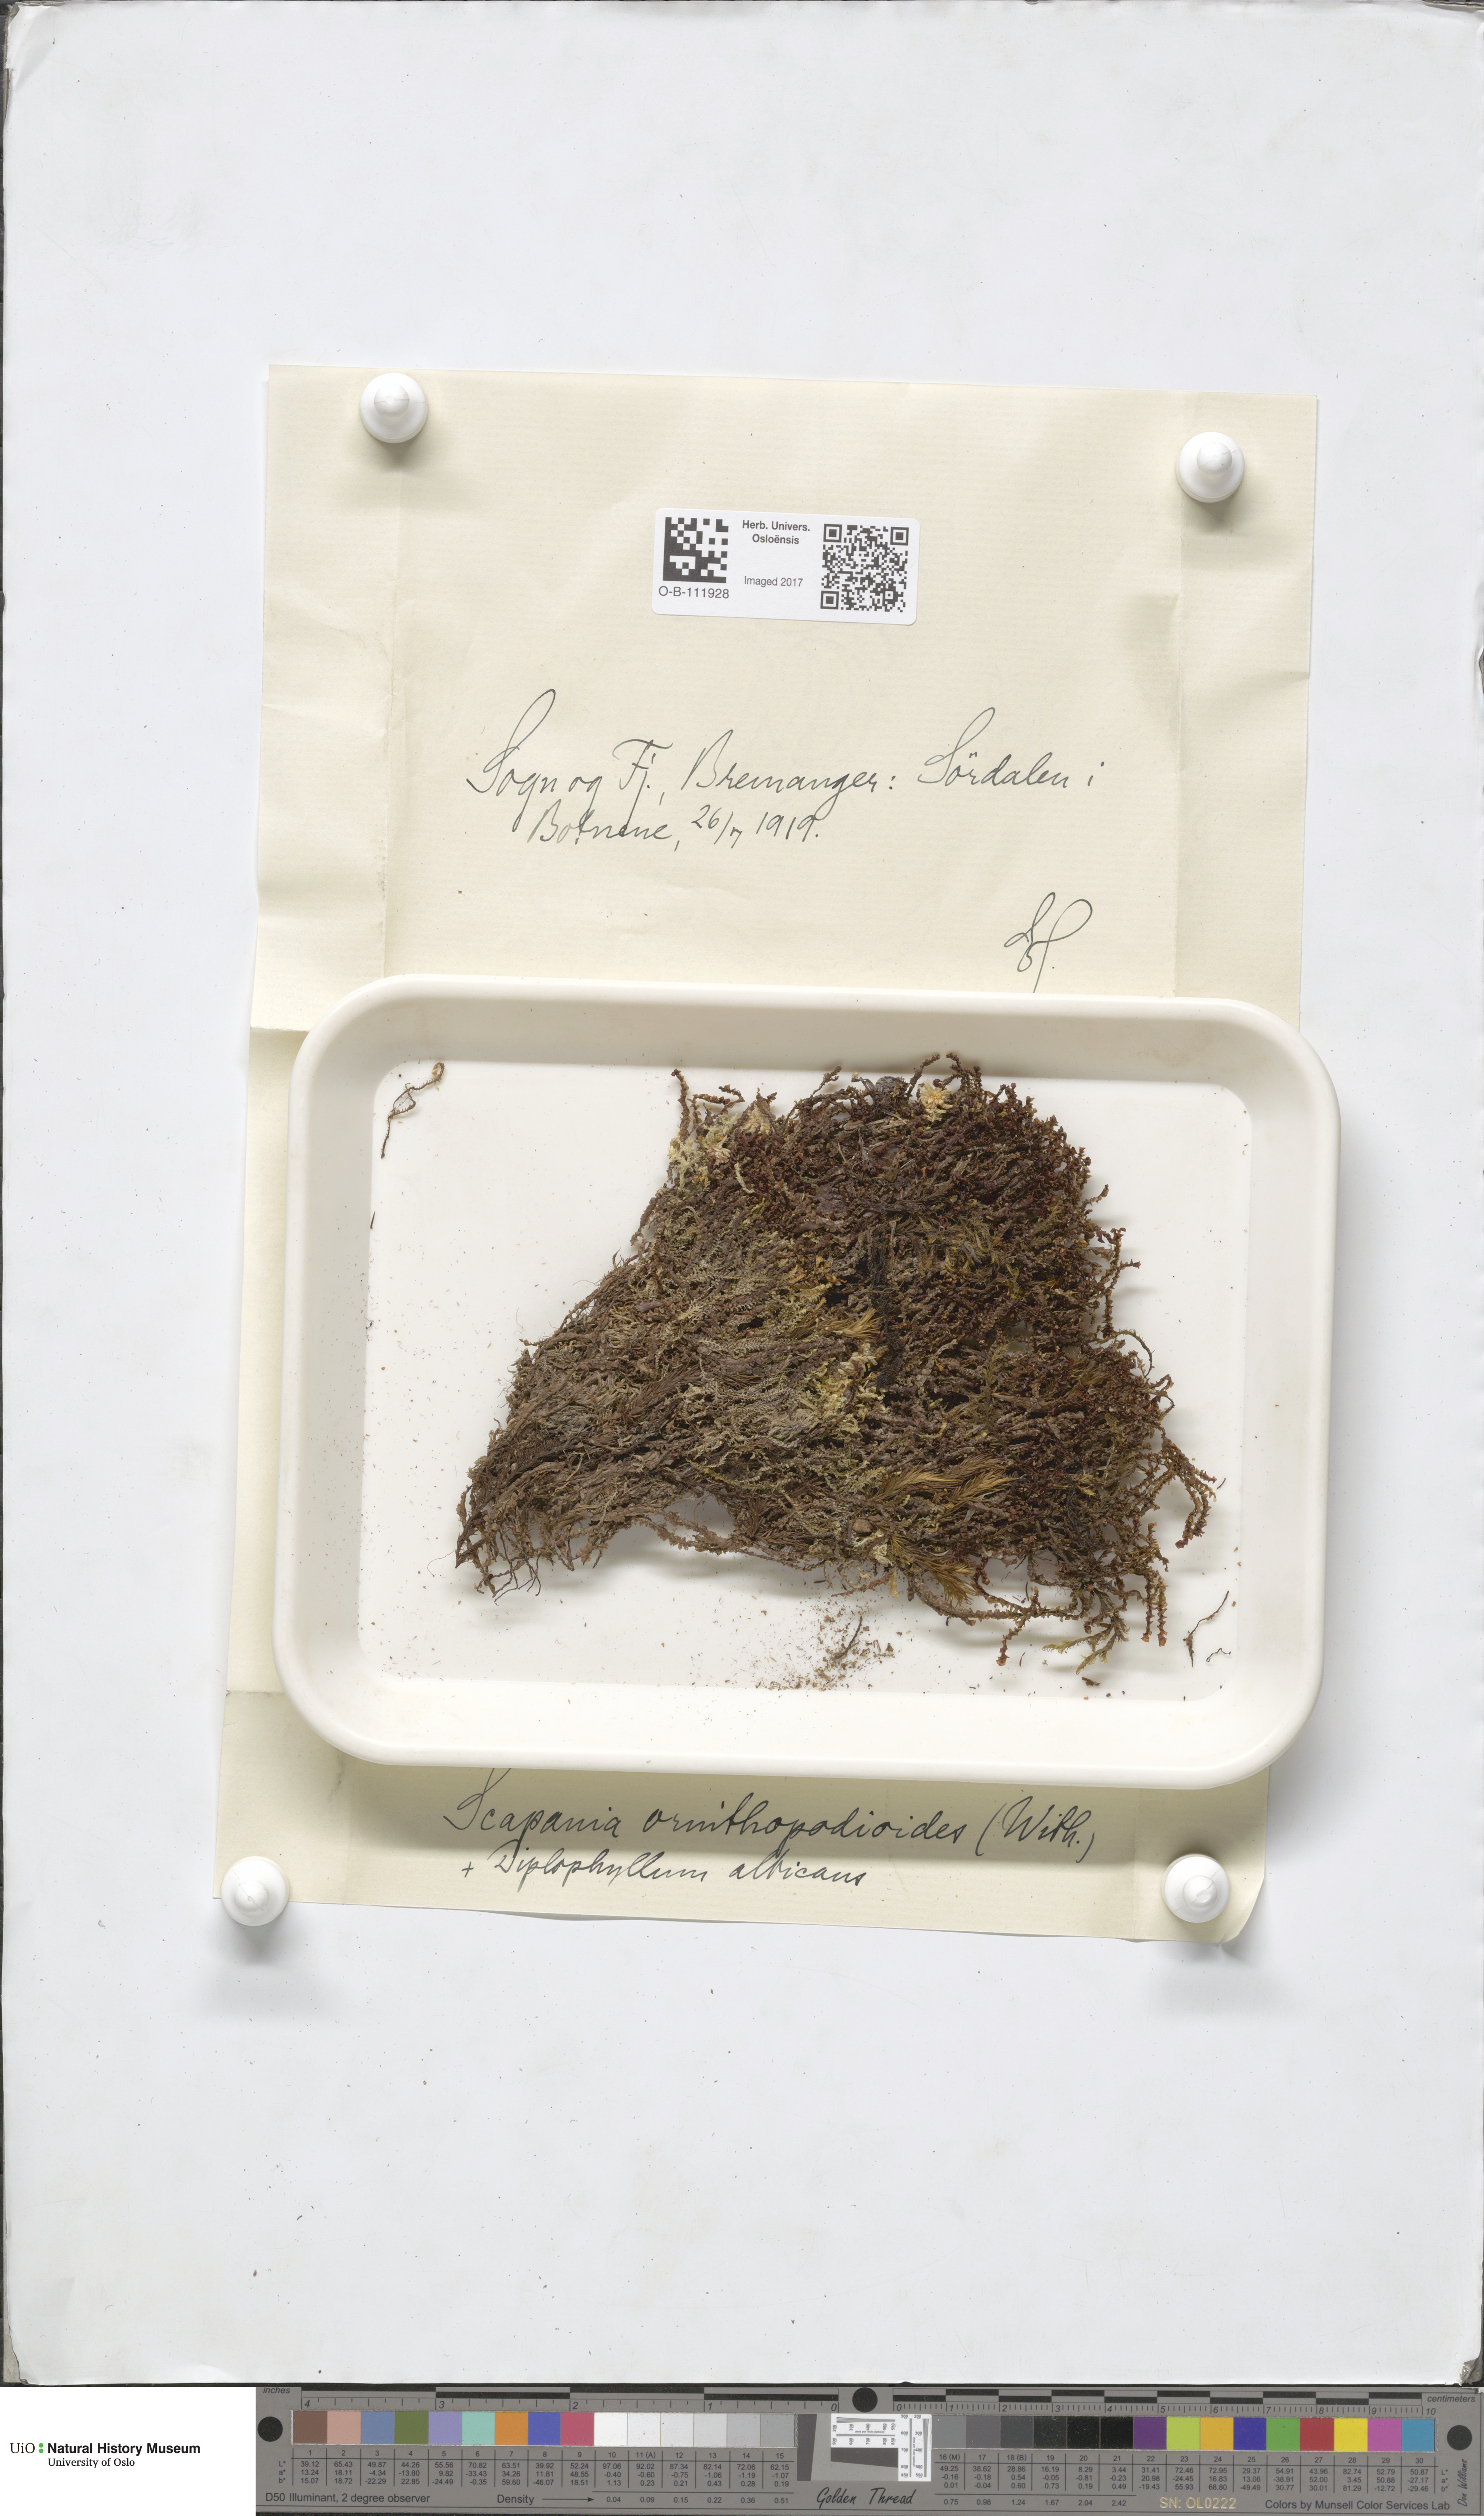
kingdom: Plantae
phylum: Marchantiophyta
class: Jungermanniopsida
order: Jungermanniales
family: Scapaniaceae
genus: Scapania
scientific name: Scapania ornithopodioides
